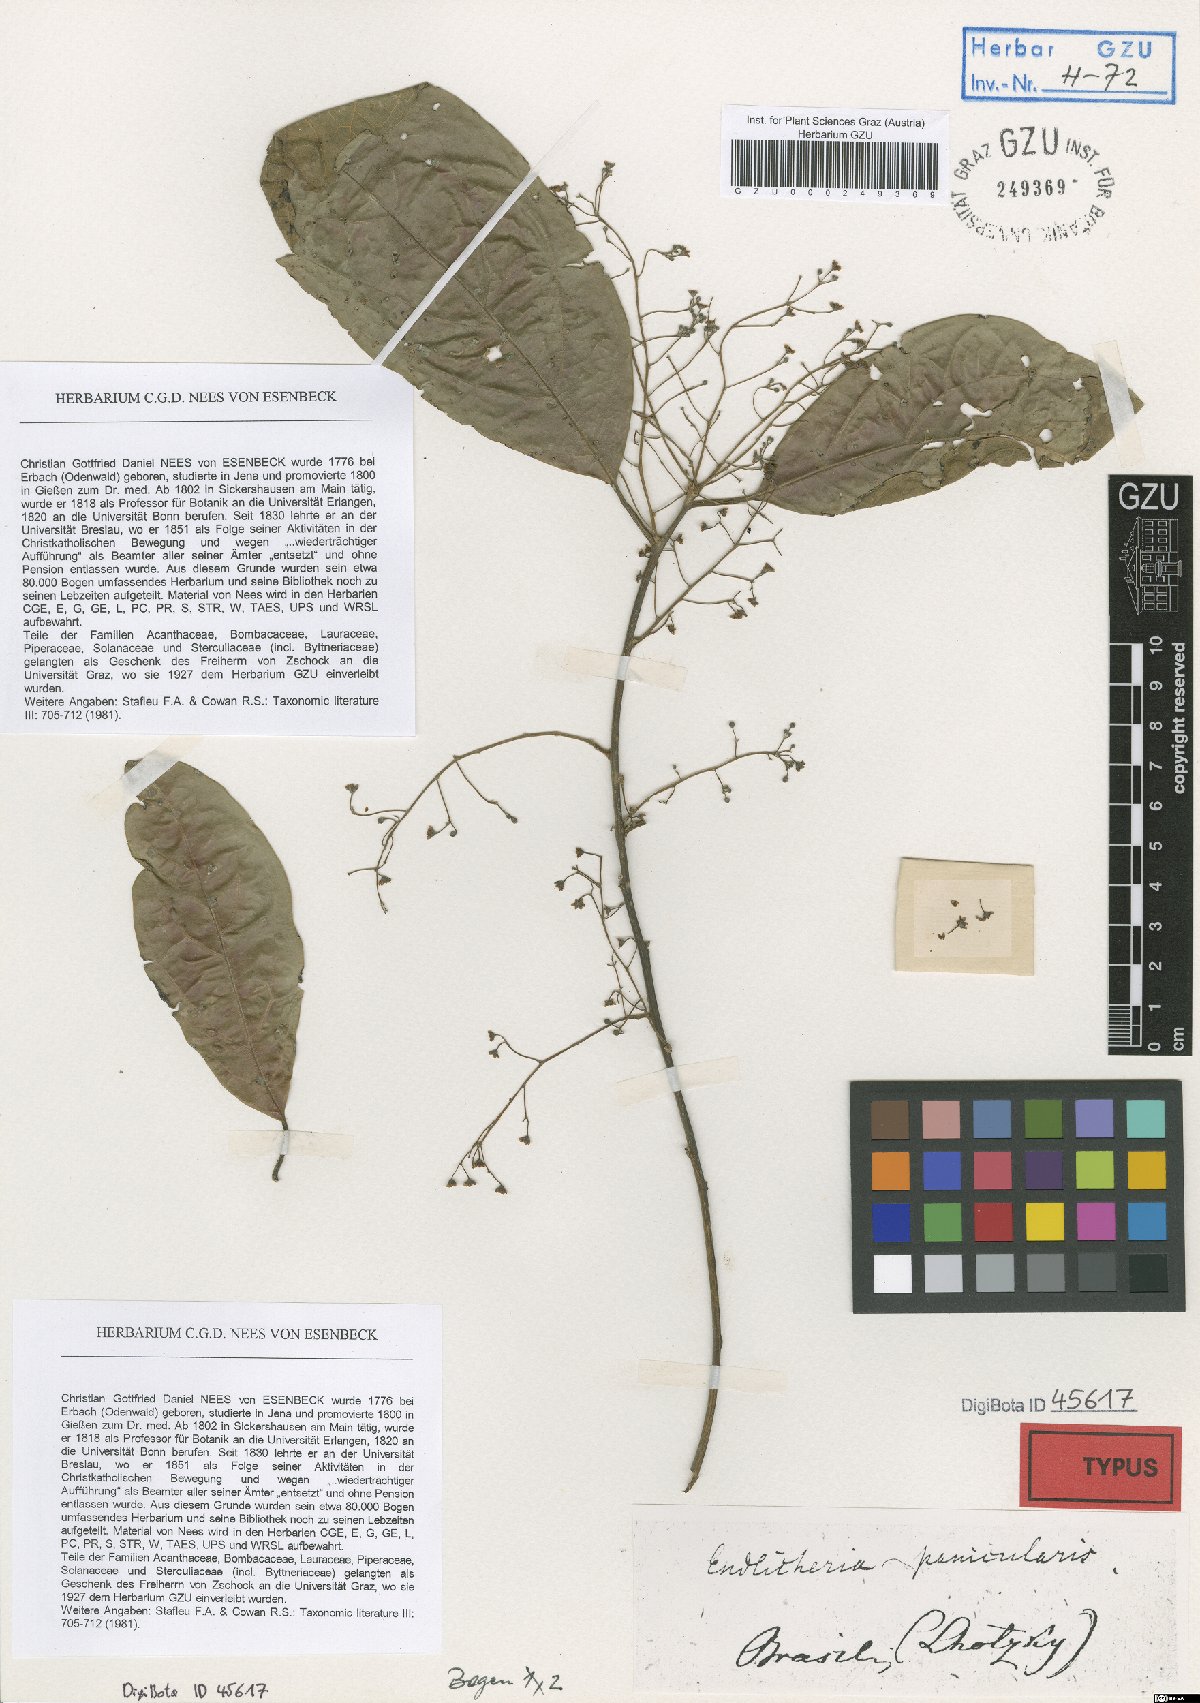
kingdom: Plantae
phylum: Tracheophyta
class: Magnoliopsida
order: Laurales
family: Lauraceae
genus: Endlicheria
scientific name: Endlicheria paniculata
